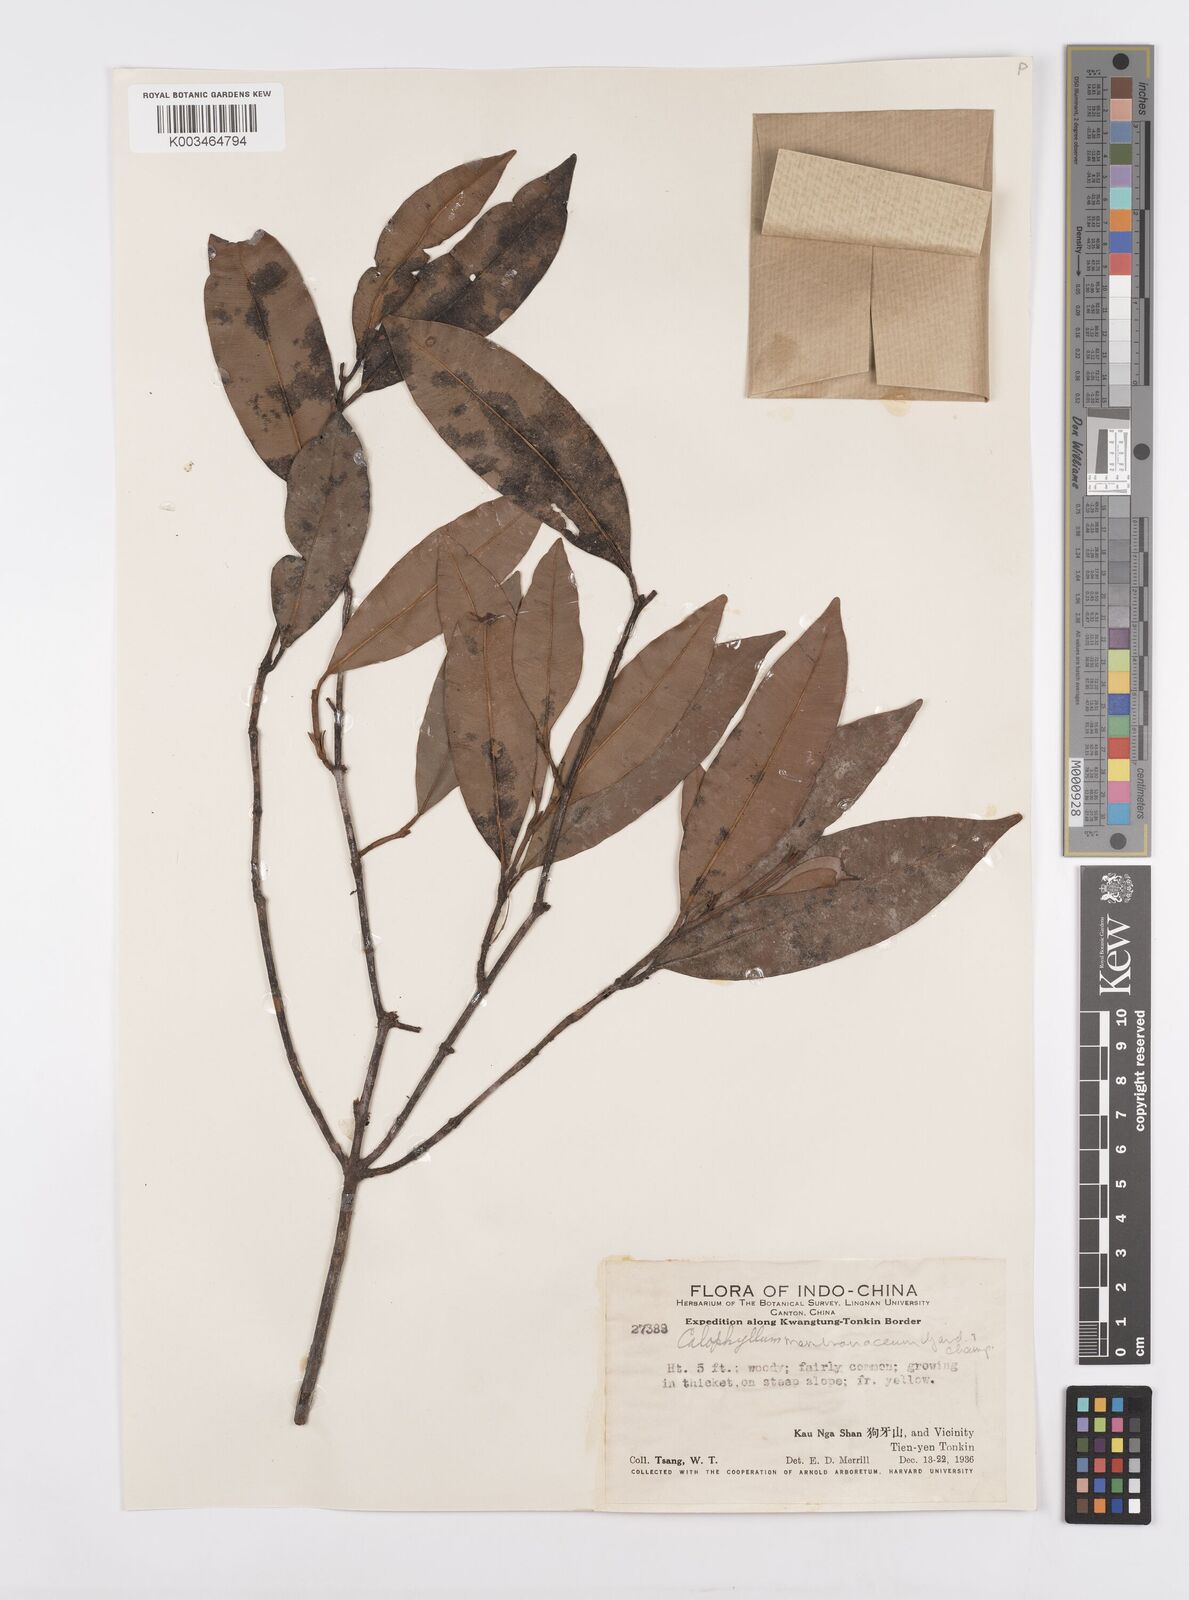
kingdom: Plantae
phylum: Tracheophyta
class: Magnoliopsida
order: Malpighiales
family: Calophyllaceae
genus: Calophyllum
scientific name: Calophyllum membranaceum
